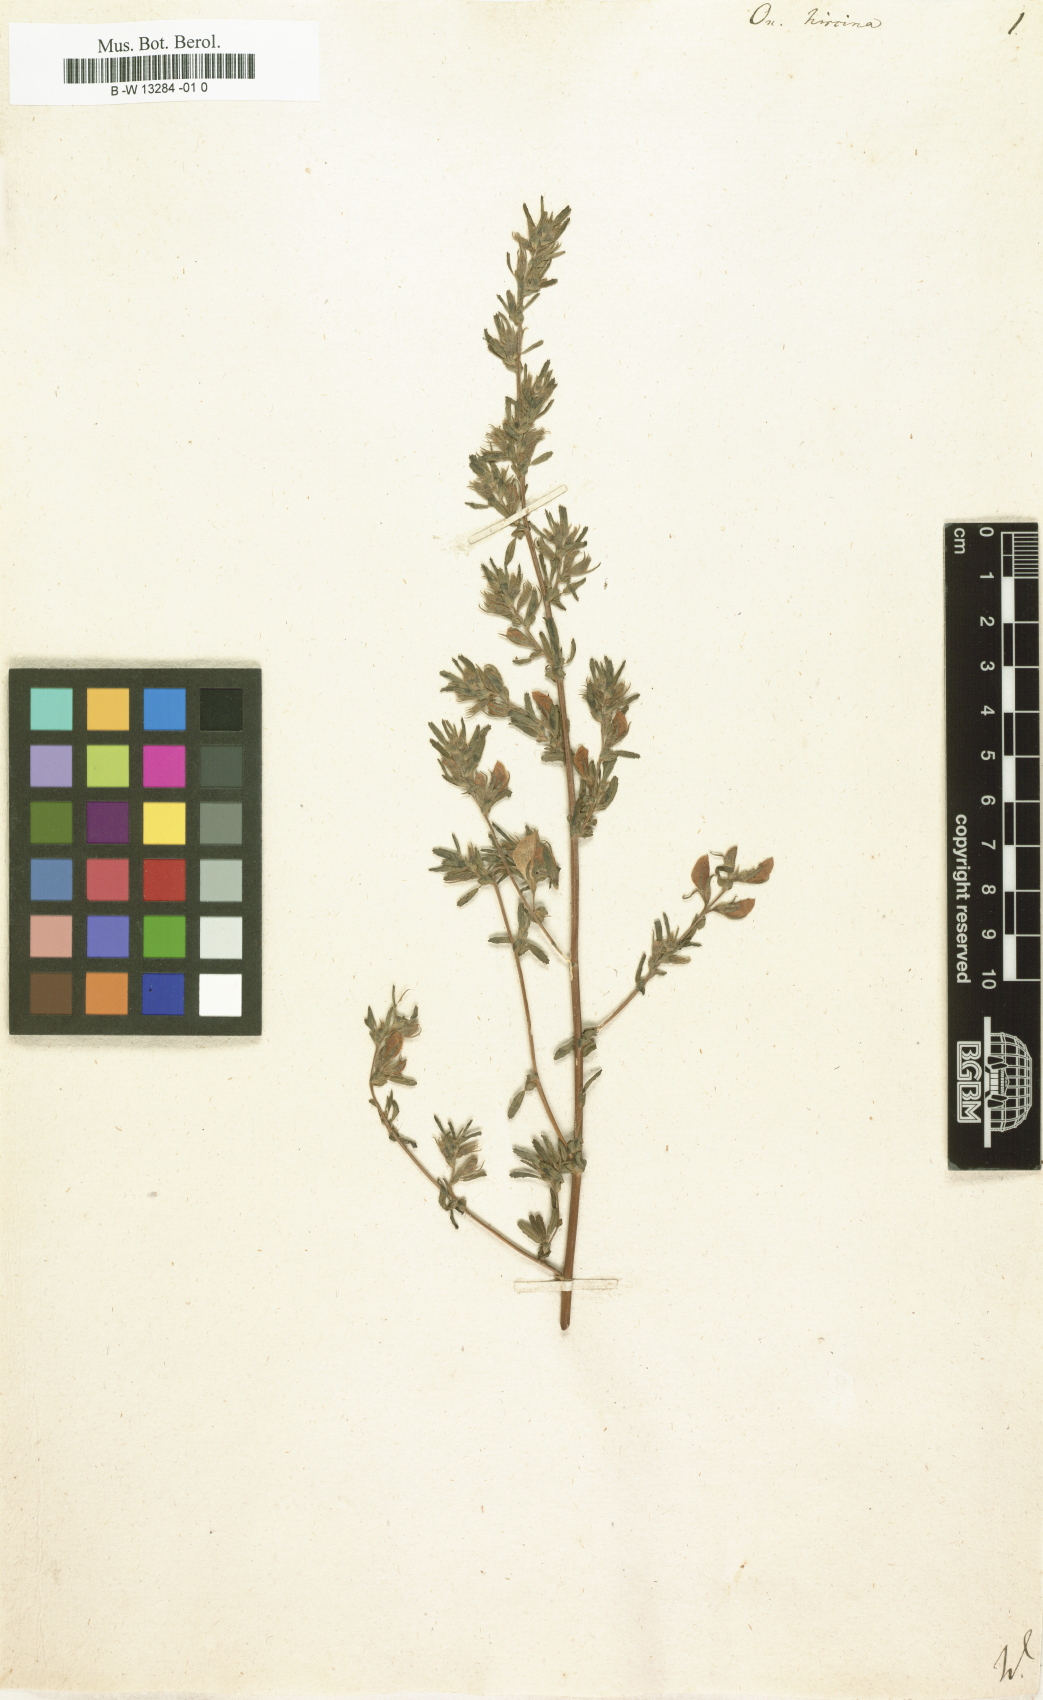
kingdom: Plantae
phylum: Tracheophyta
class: Magnoliopsida
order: Fabales
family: Fabaceae
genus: Ononis
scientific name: Ononis arvensis
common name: Field restharrow
